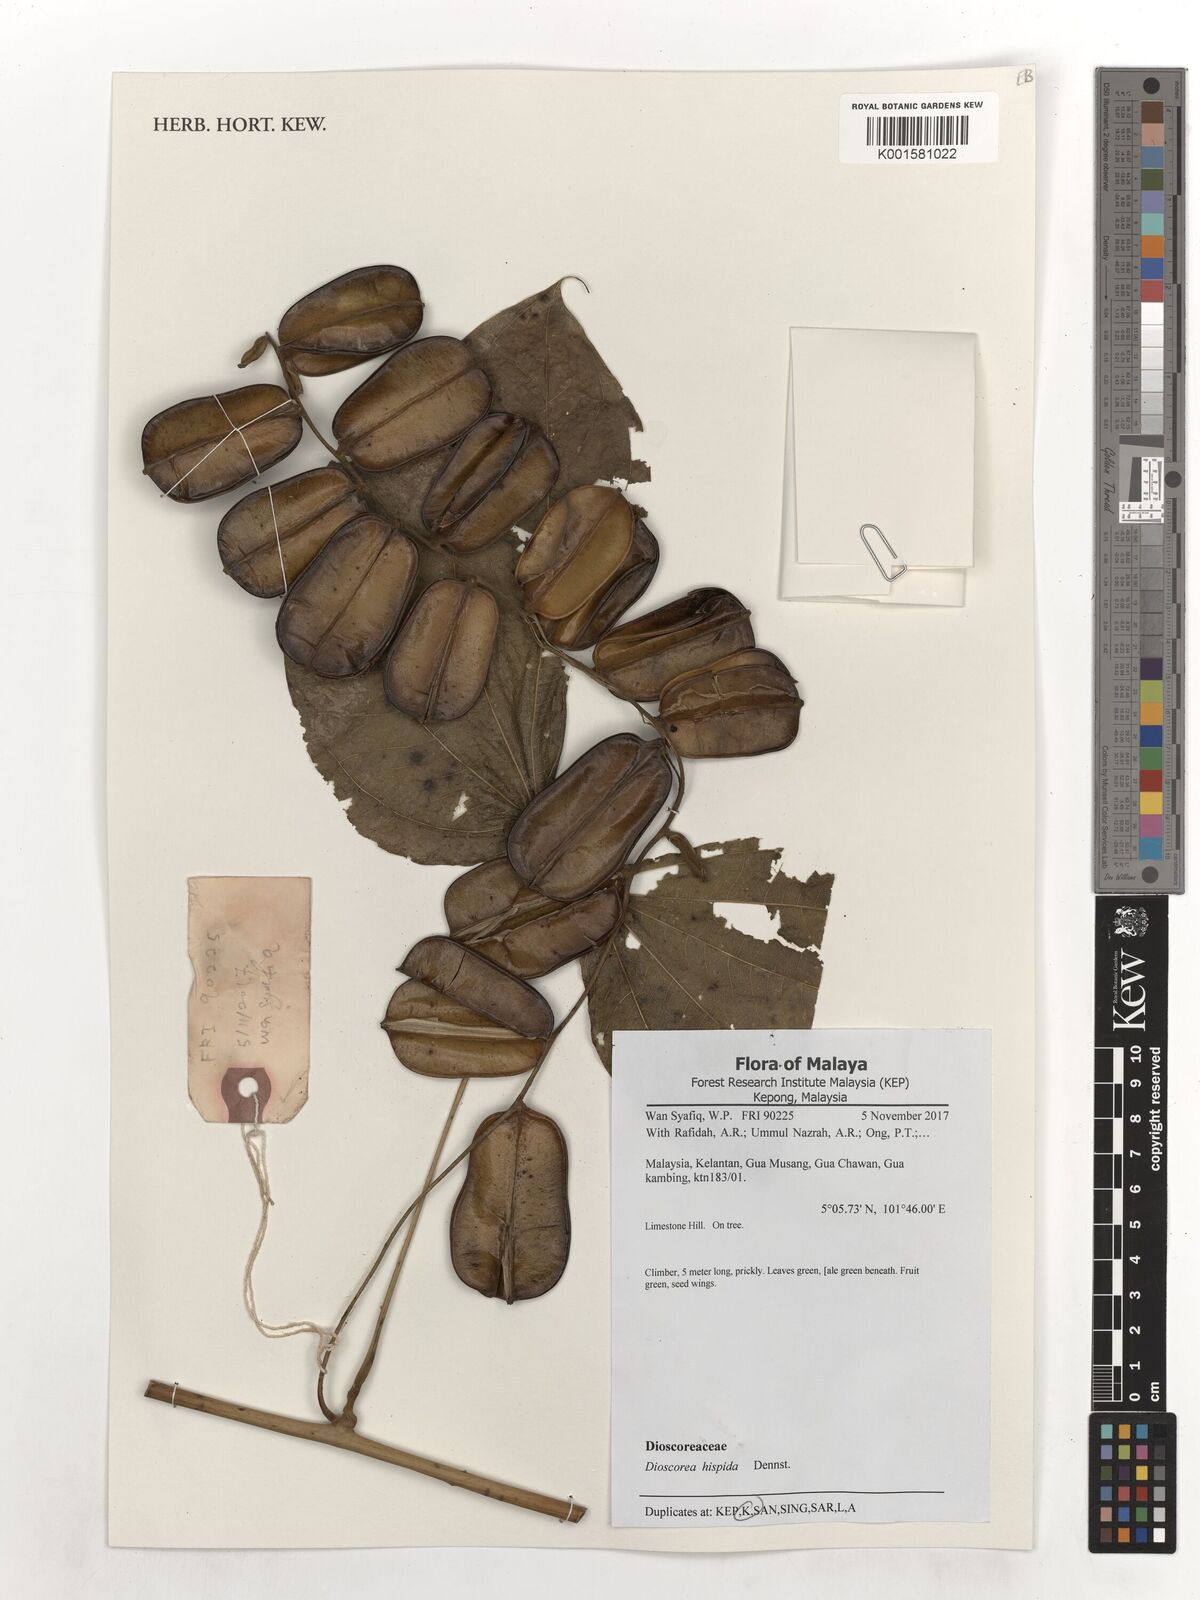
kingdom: Plantae
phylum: Tracheophyta
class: Liliopsida
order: Dioscoreales
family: Dioscoreaceae
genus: Dioscorea
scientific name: Dioscorea hispida
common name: Asiatic bitter yam
